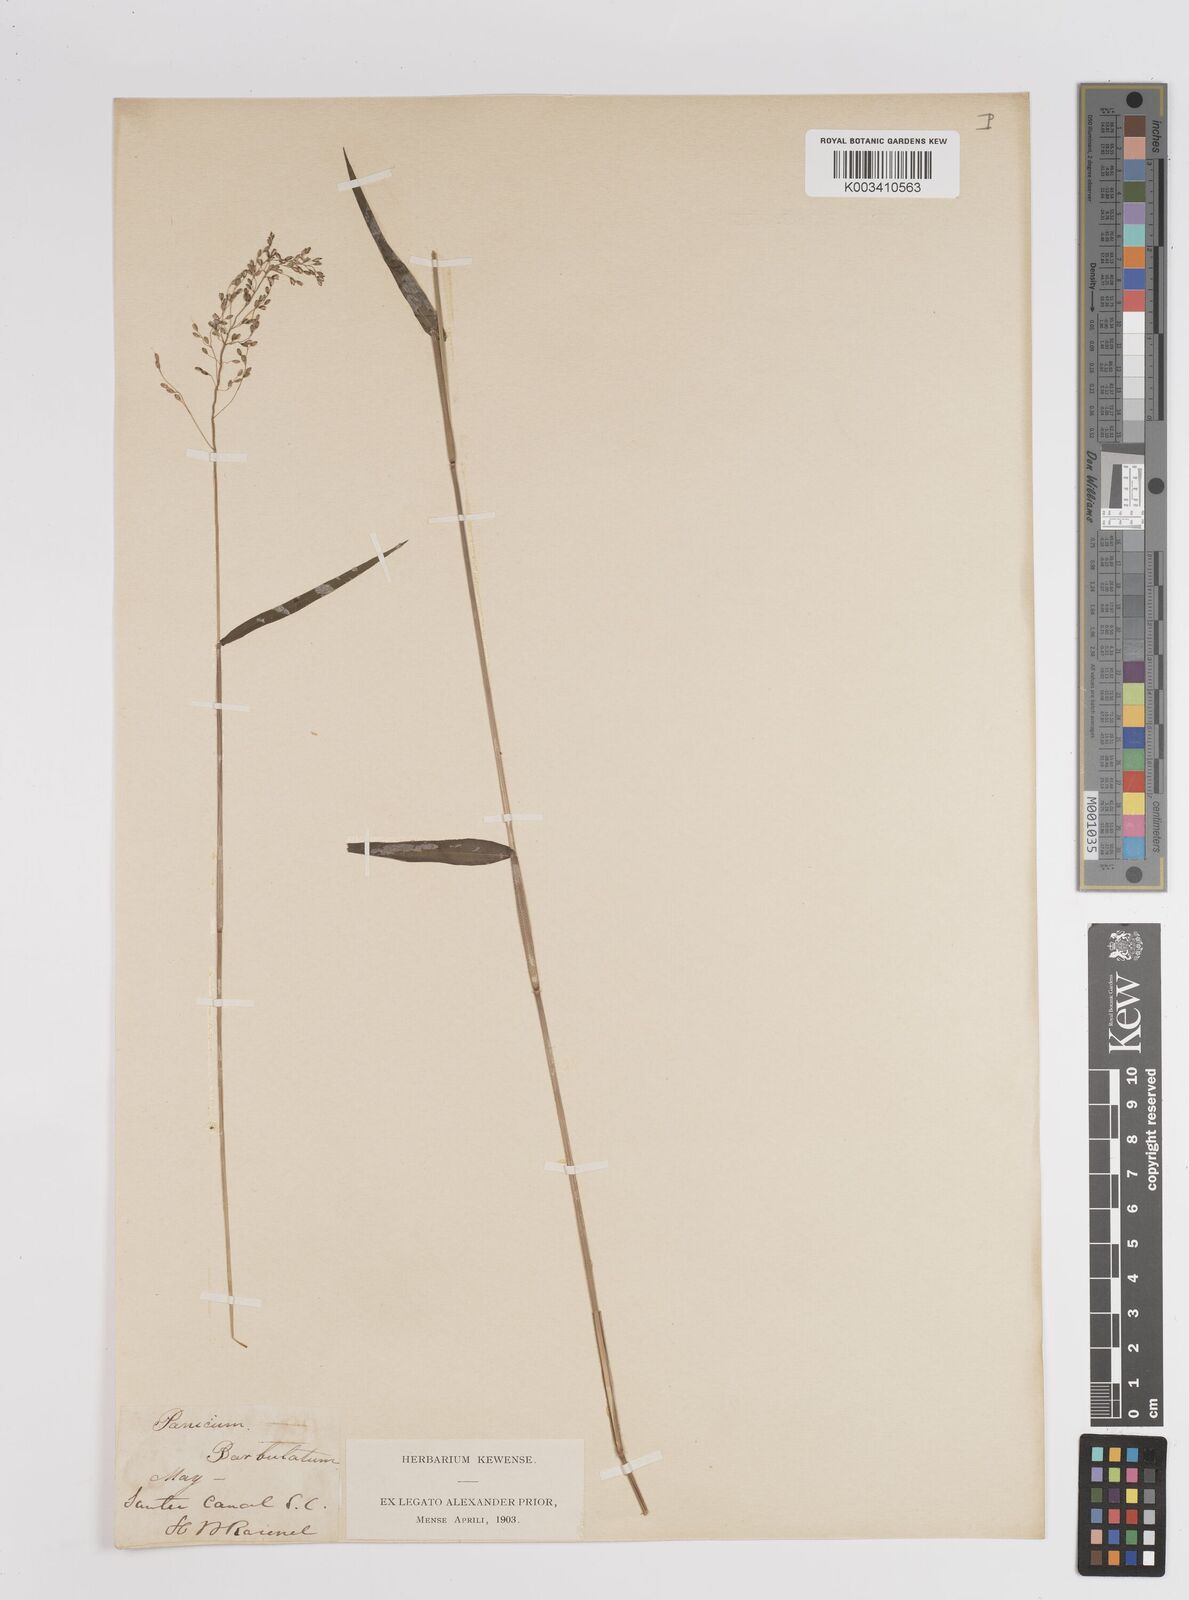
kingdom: Plantae
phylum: Tracheophyta
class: Liliopsida
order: Poales
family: Poaceae
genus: Dichanthelium
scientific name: Dichanthelium dichotomum
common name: Cypress panicgrass
